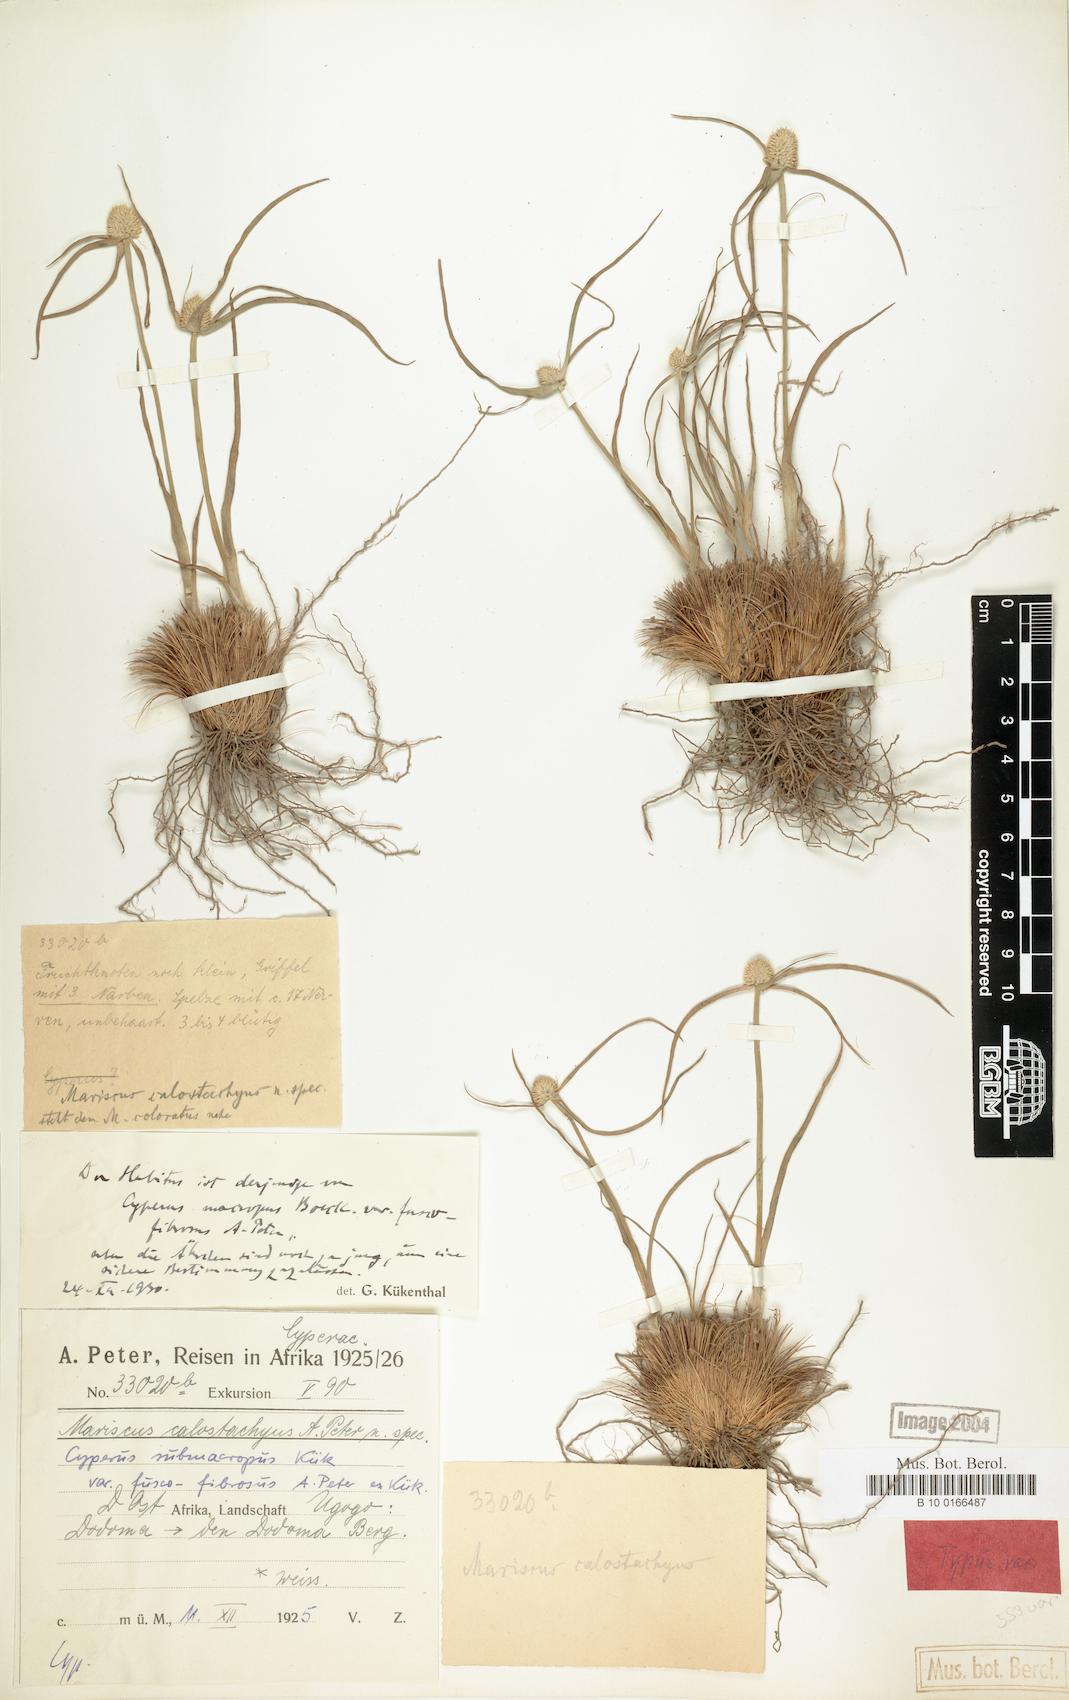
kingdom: Plantae
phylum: Tracheophyta
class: Liliopsida
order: Poales
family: Cyperaceae
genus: Cyperus
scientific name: Cyperus mollipes
